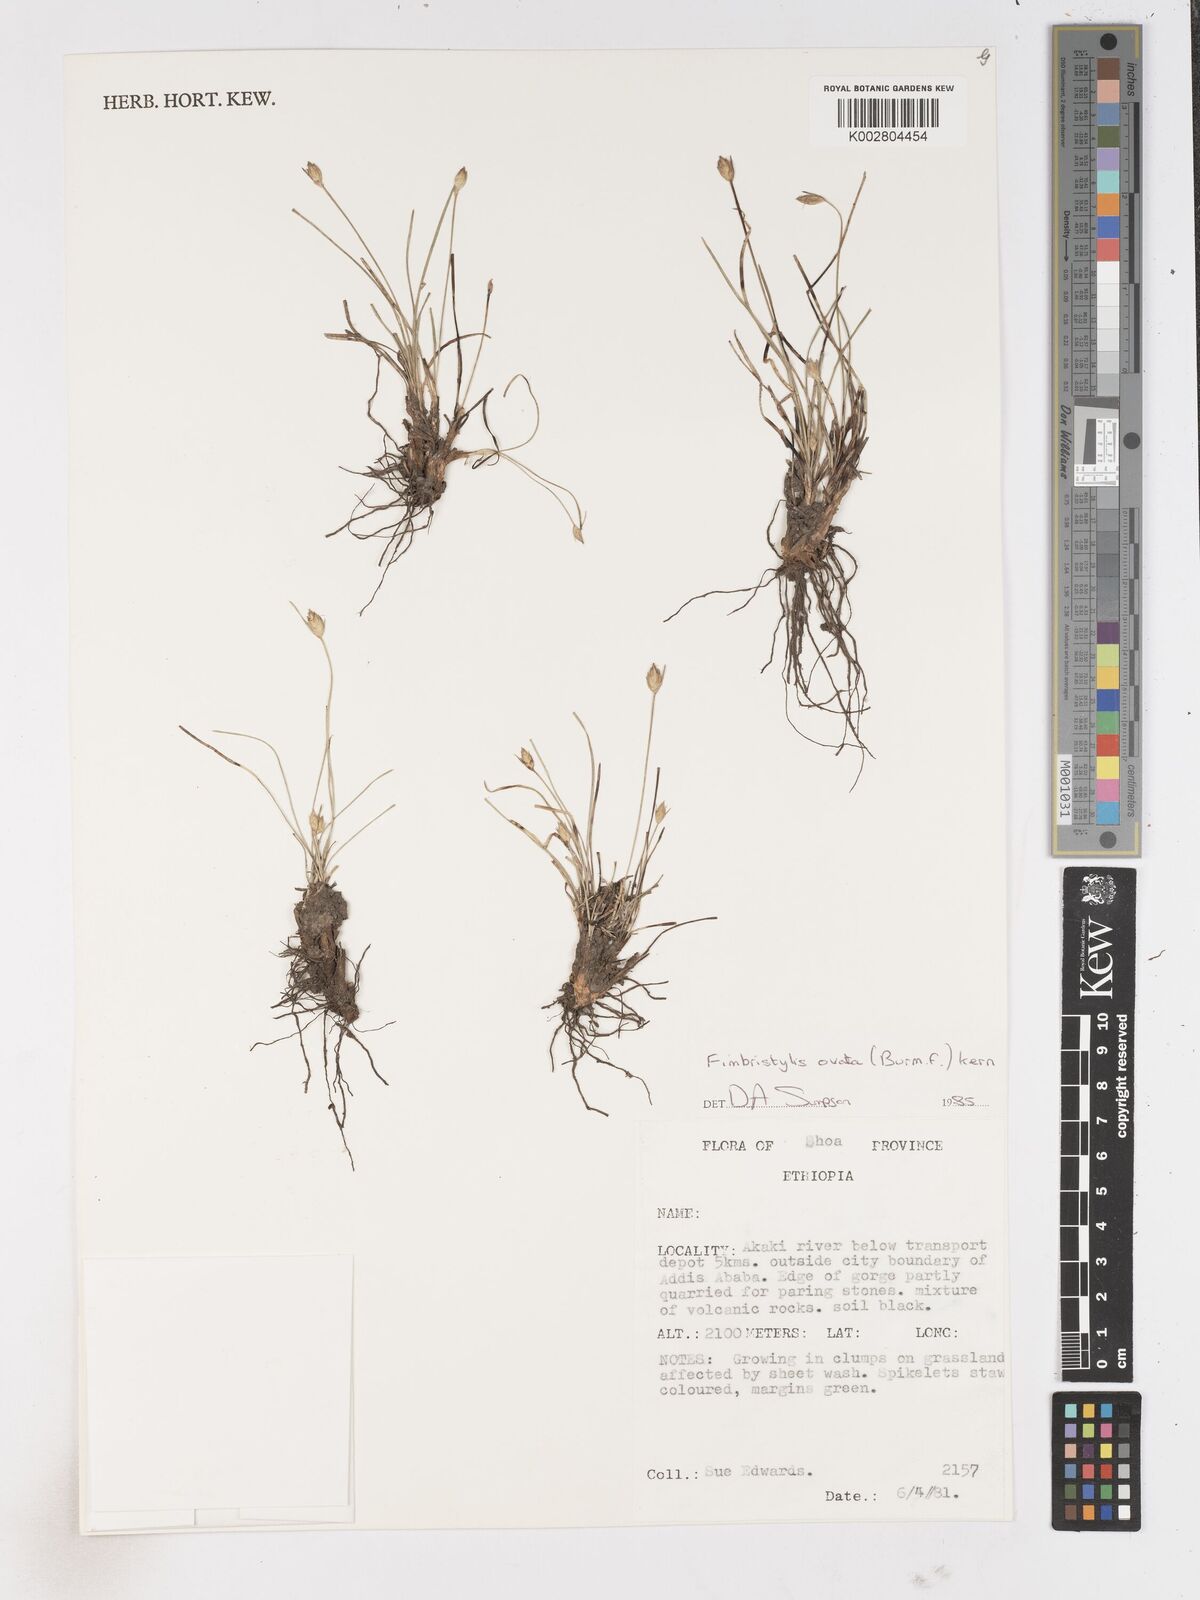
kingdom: Plantae
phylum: Tracheophyta
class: Liliopsida
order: Poales
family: Cyperaceae
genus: Abildgaardia
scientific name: Abildgaardia ovata
